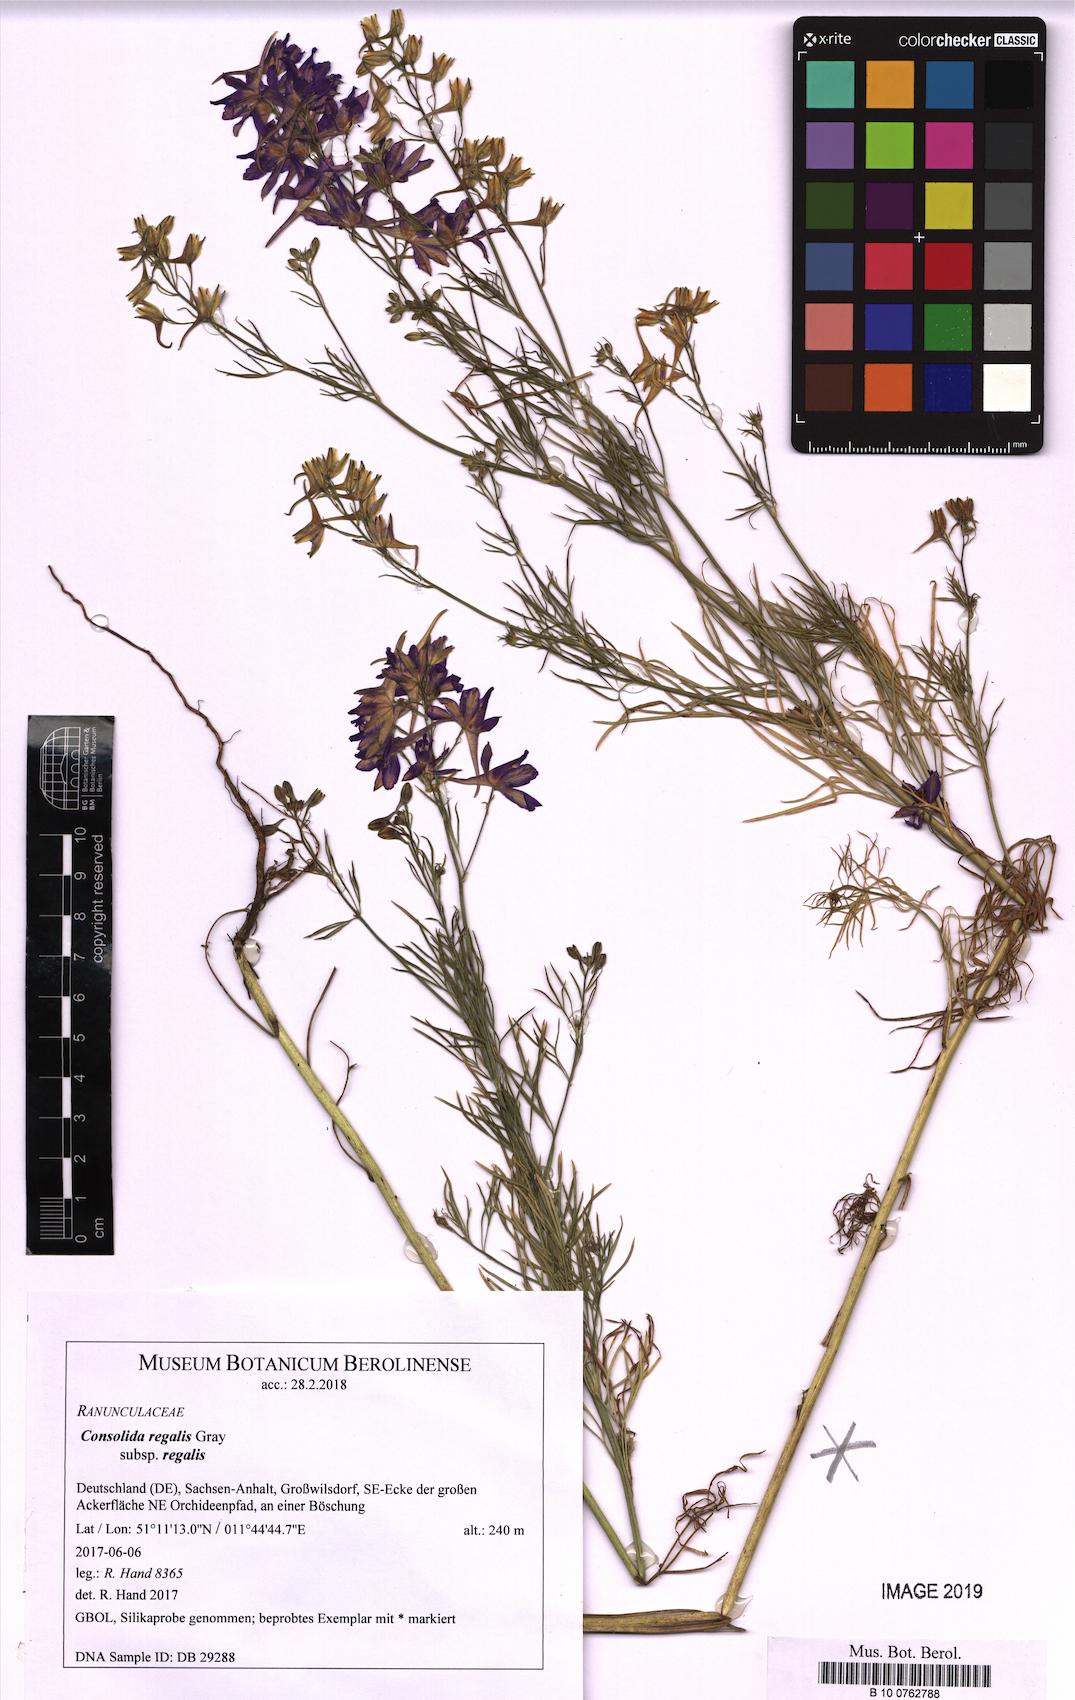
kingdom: Plantae
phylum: Tracheophyta
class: Magnoliopsida
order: Ranunculales
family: Ranunculaceae
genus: Delphinium
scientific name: Delphinium consolida
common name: Branching larkspur
